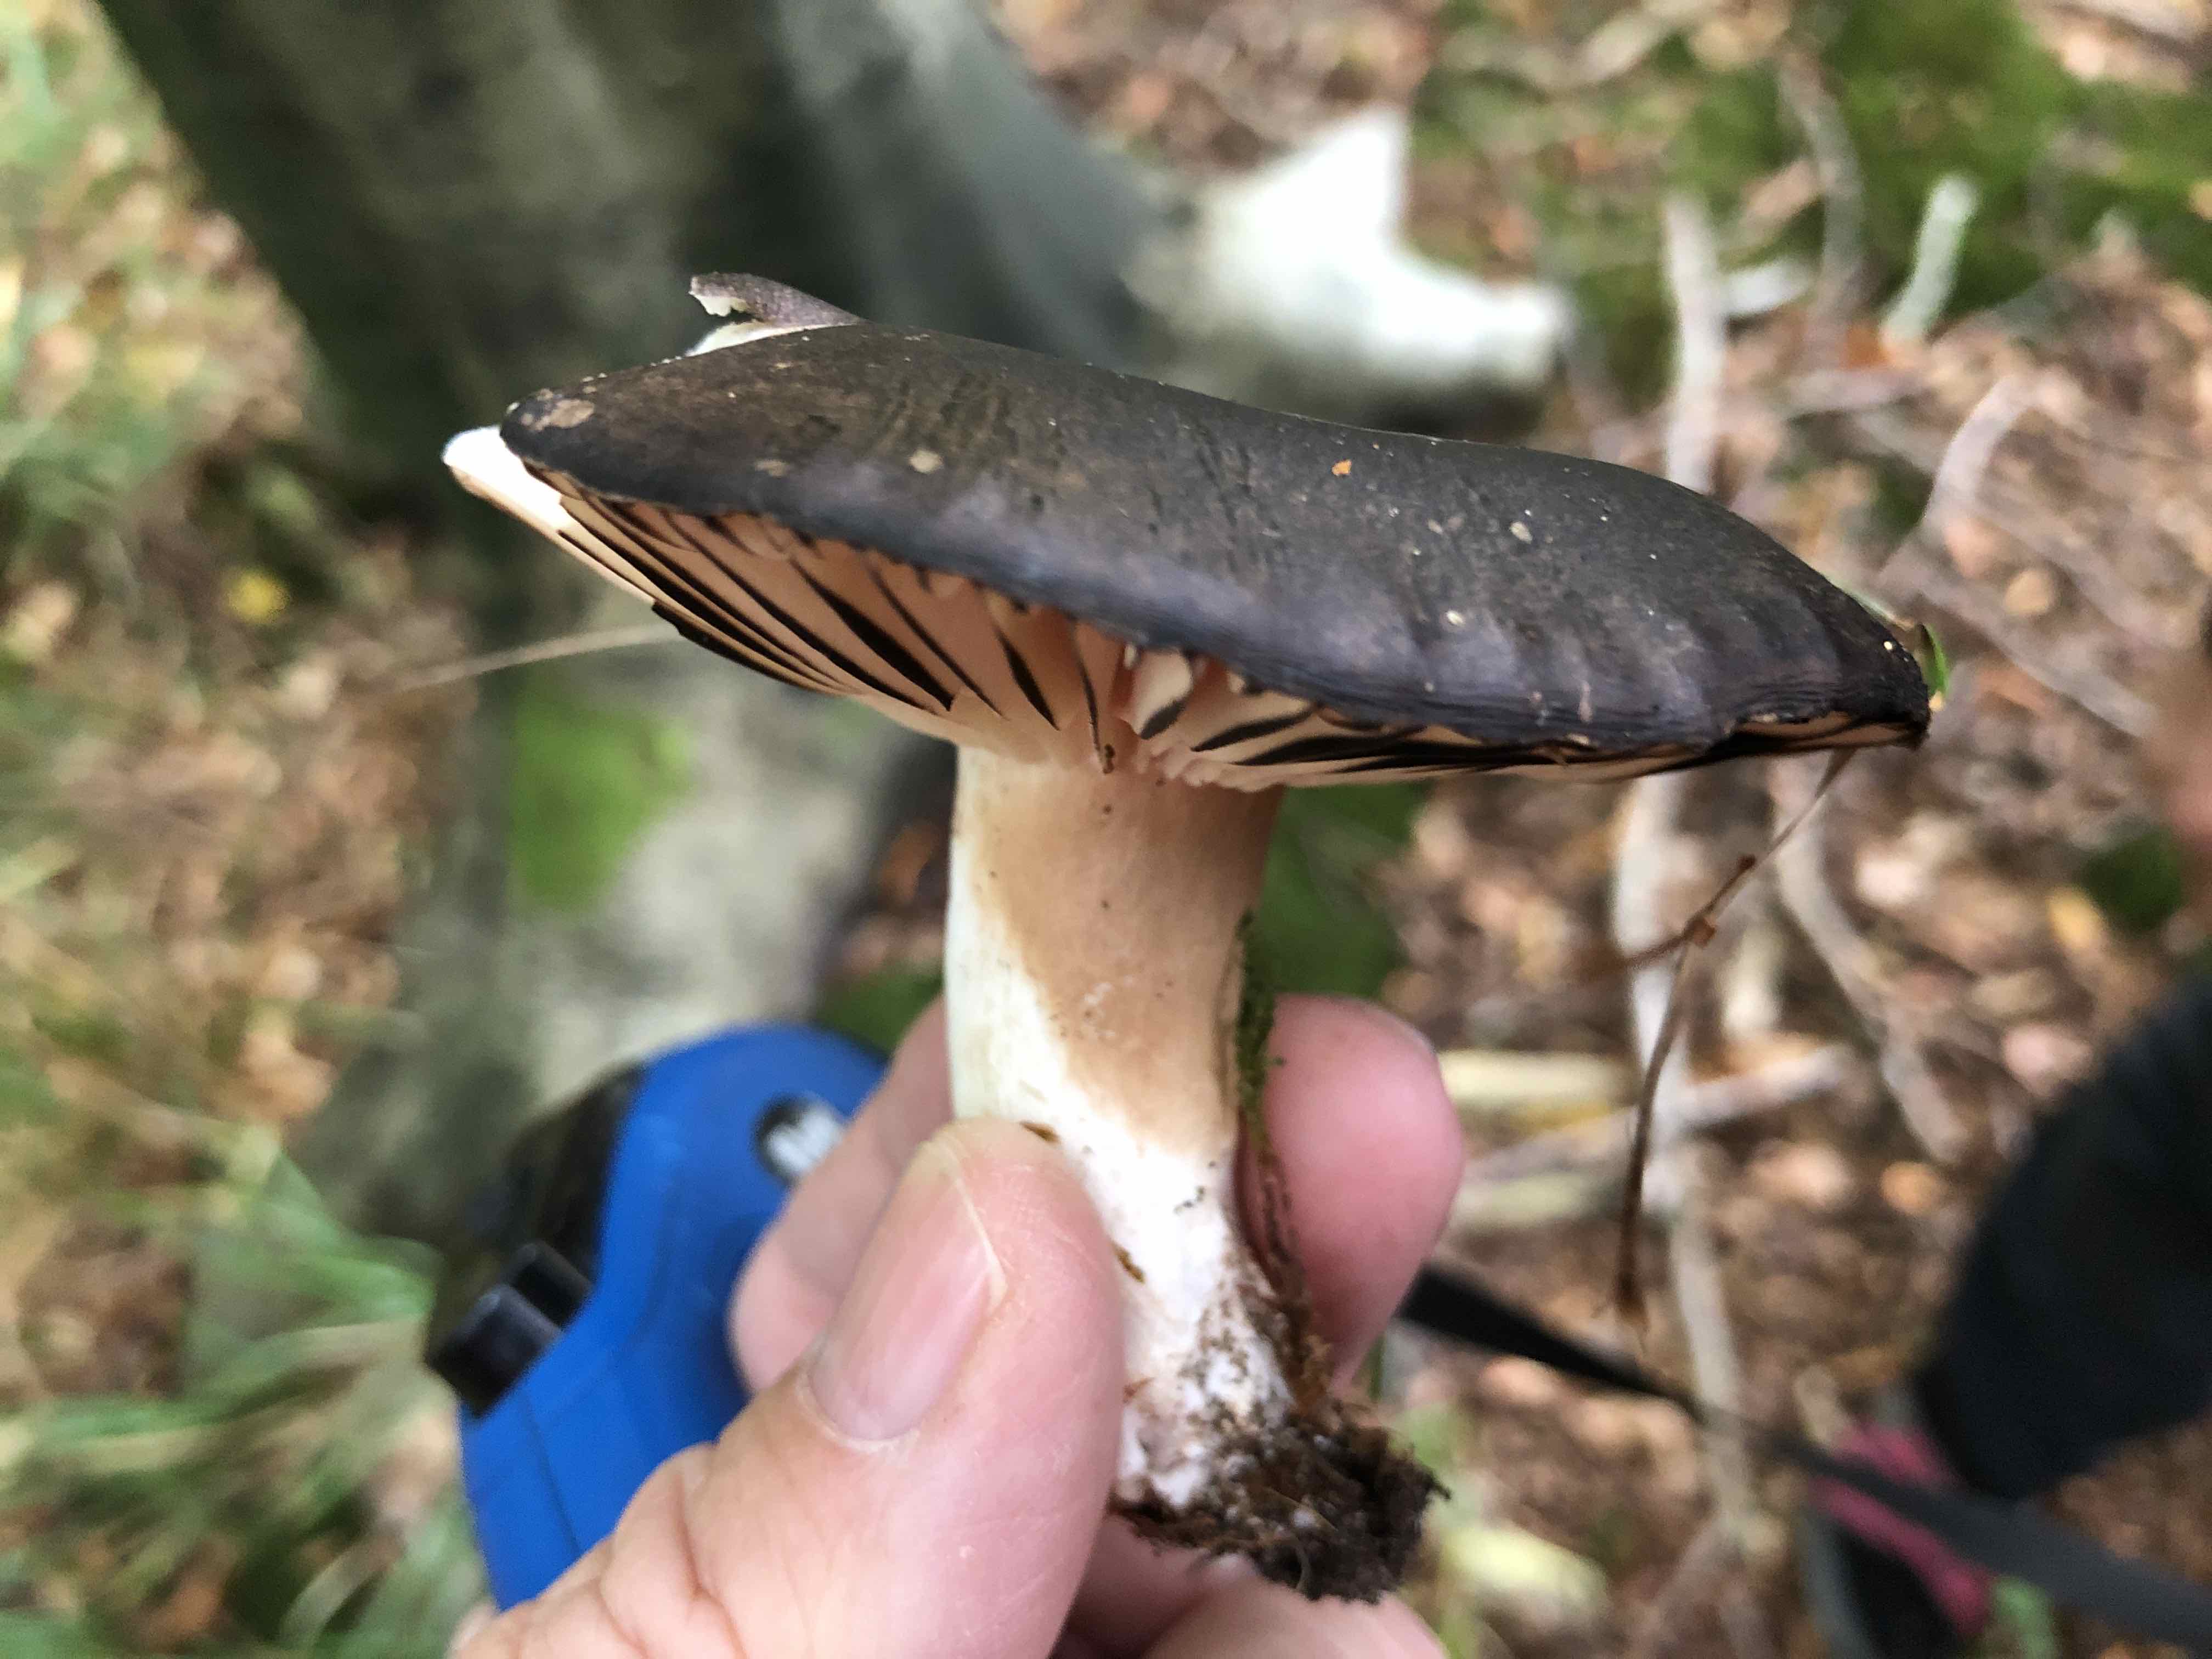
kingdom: Fungi
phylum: Basidiomycota
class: Agaricomycetes
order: Russulales
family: Russulaceae
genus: Russula
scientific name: Russula adusta
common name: sværtende skørhat
